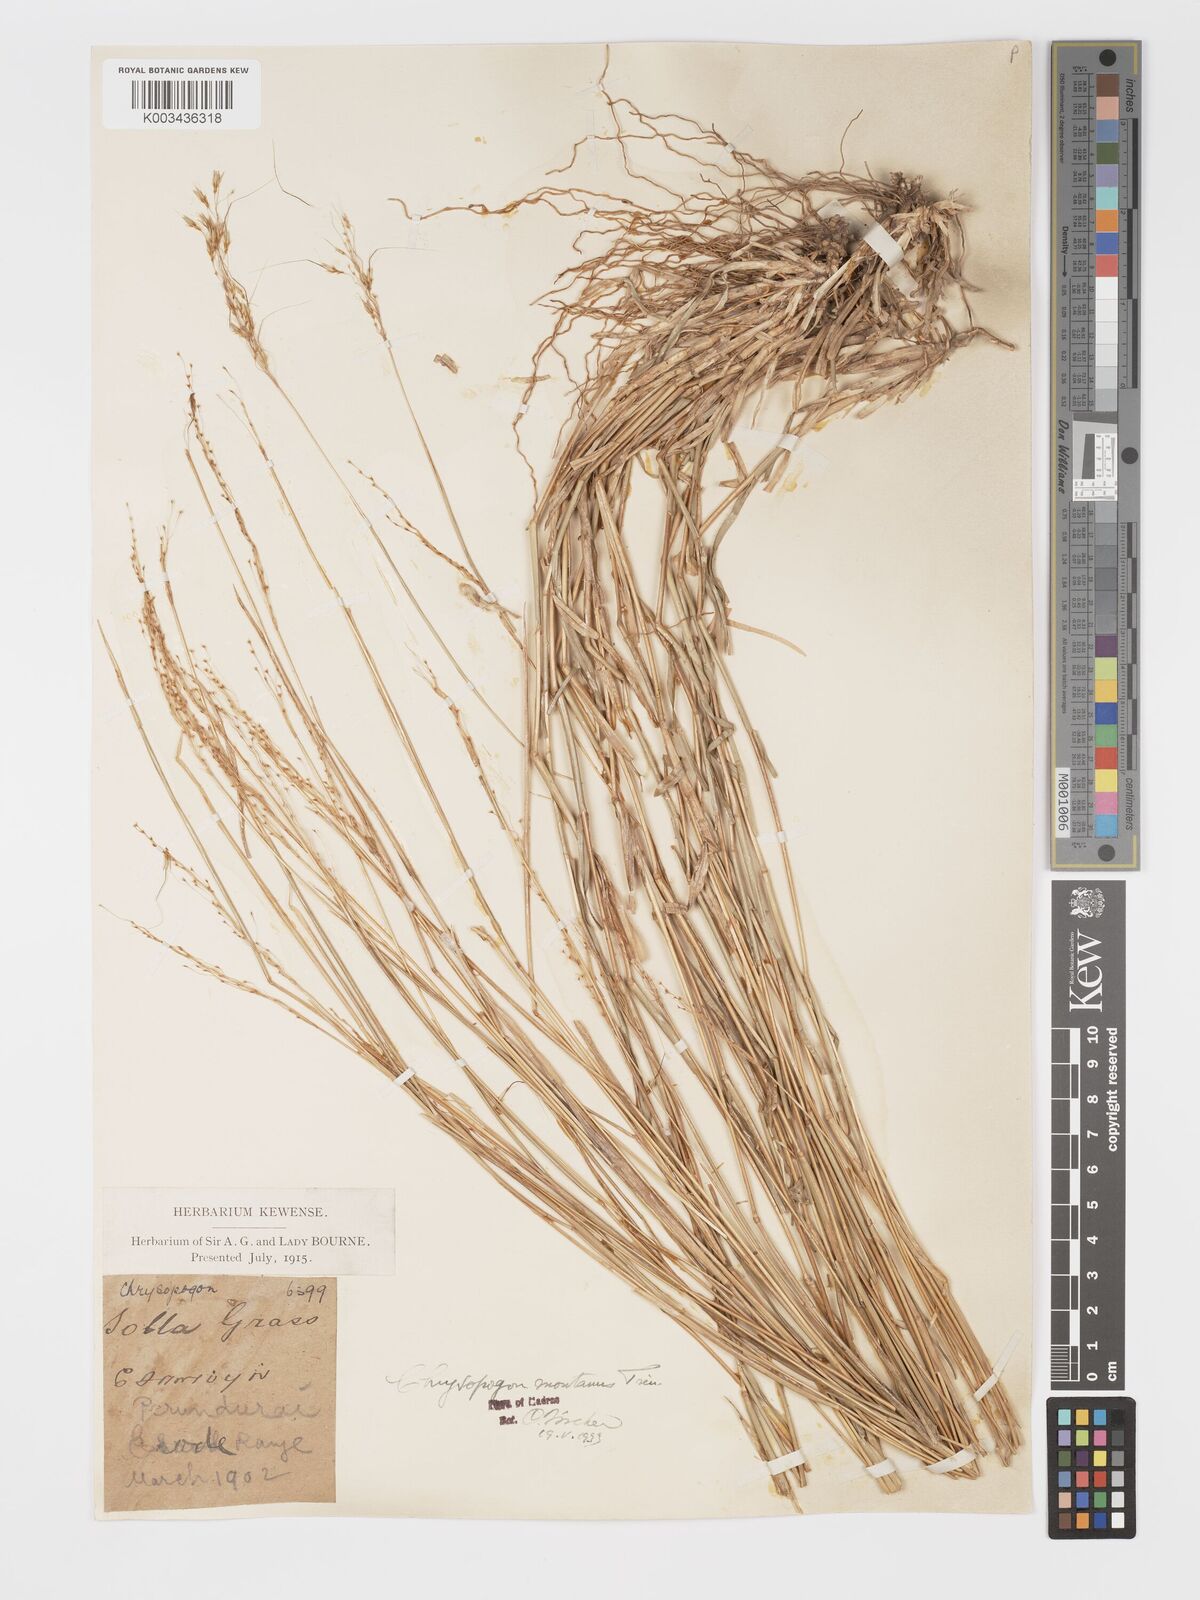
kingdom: Plantae
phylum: Tracheophyta
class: Liliopsida
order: Poales
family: Poaceae
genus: Chrysopogon
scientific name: Chrysopogon fulvus
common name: Red false beardgrass
